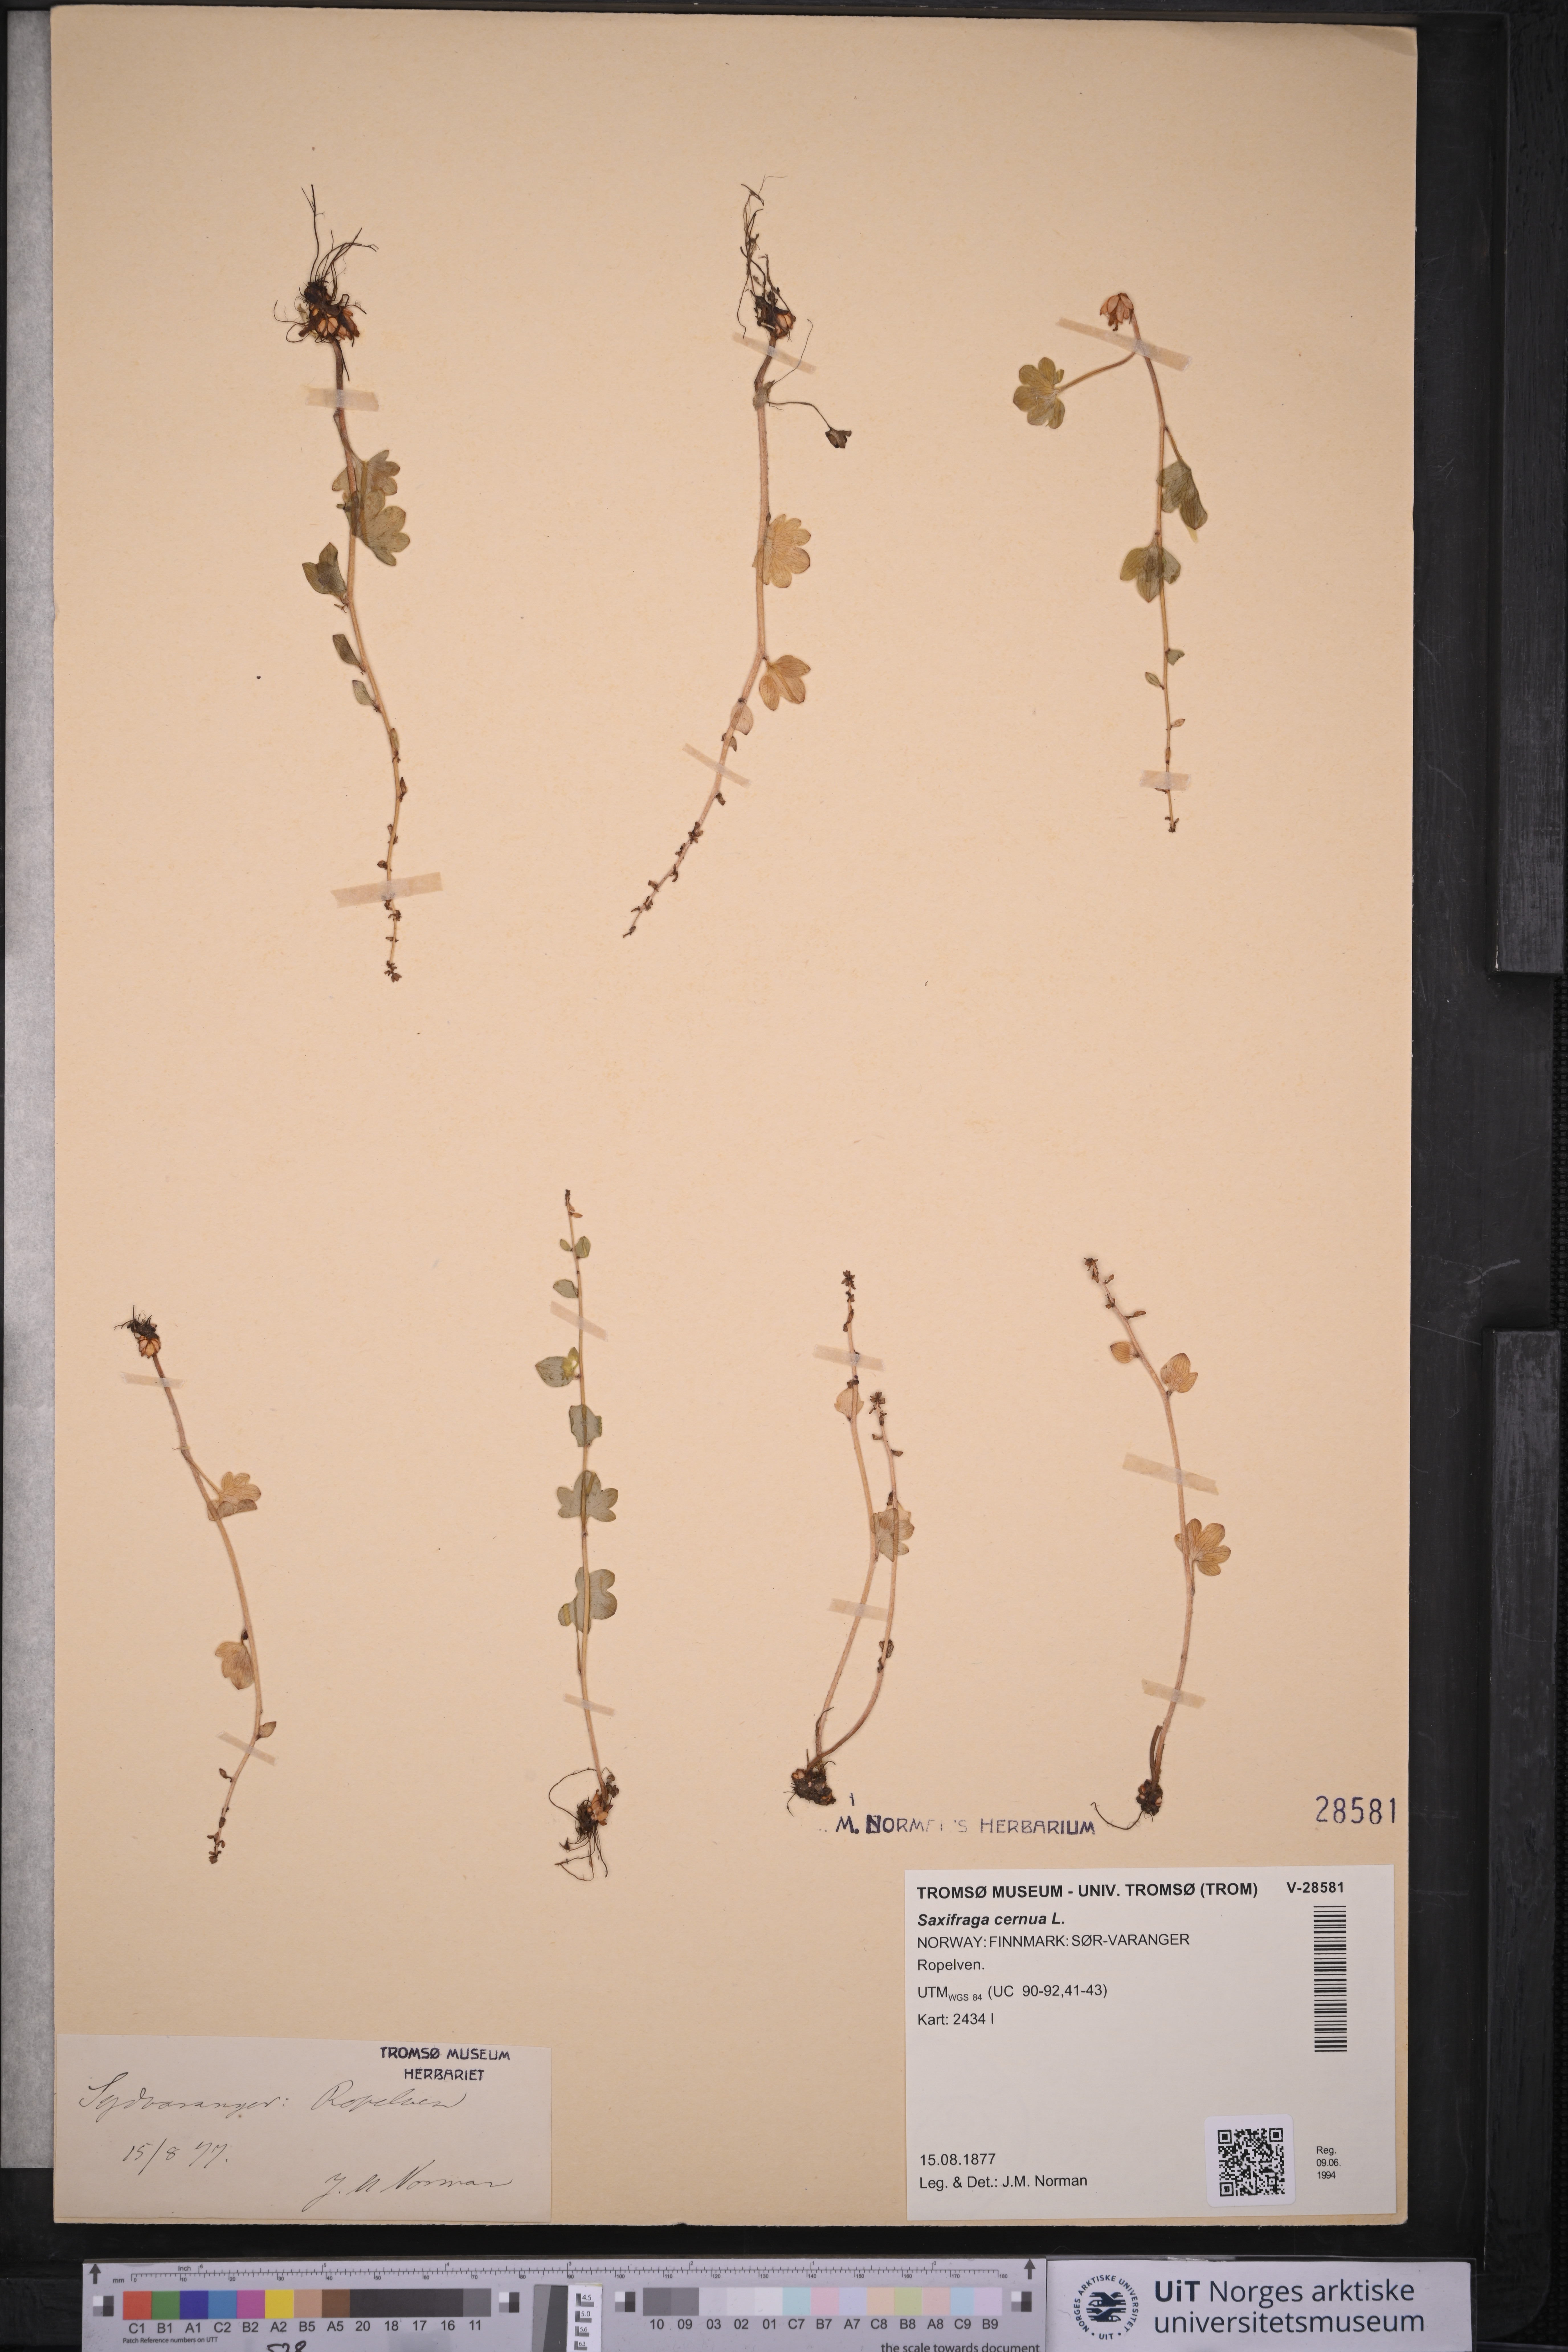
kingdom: Plantae
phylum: Tracheophyta
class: Magnoliopsida
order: Saxifragales
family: Saxifragaceae
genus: Saxifraga
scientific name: Saxifraga cernua
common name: Drooping saxifrage
